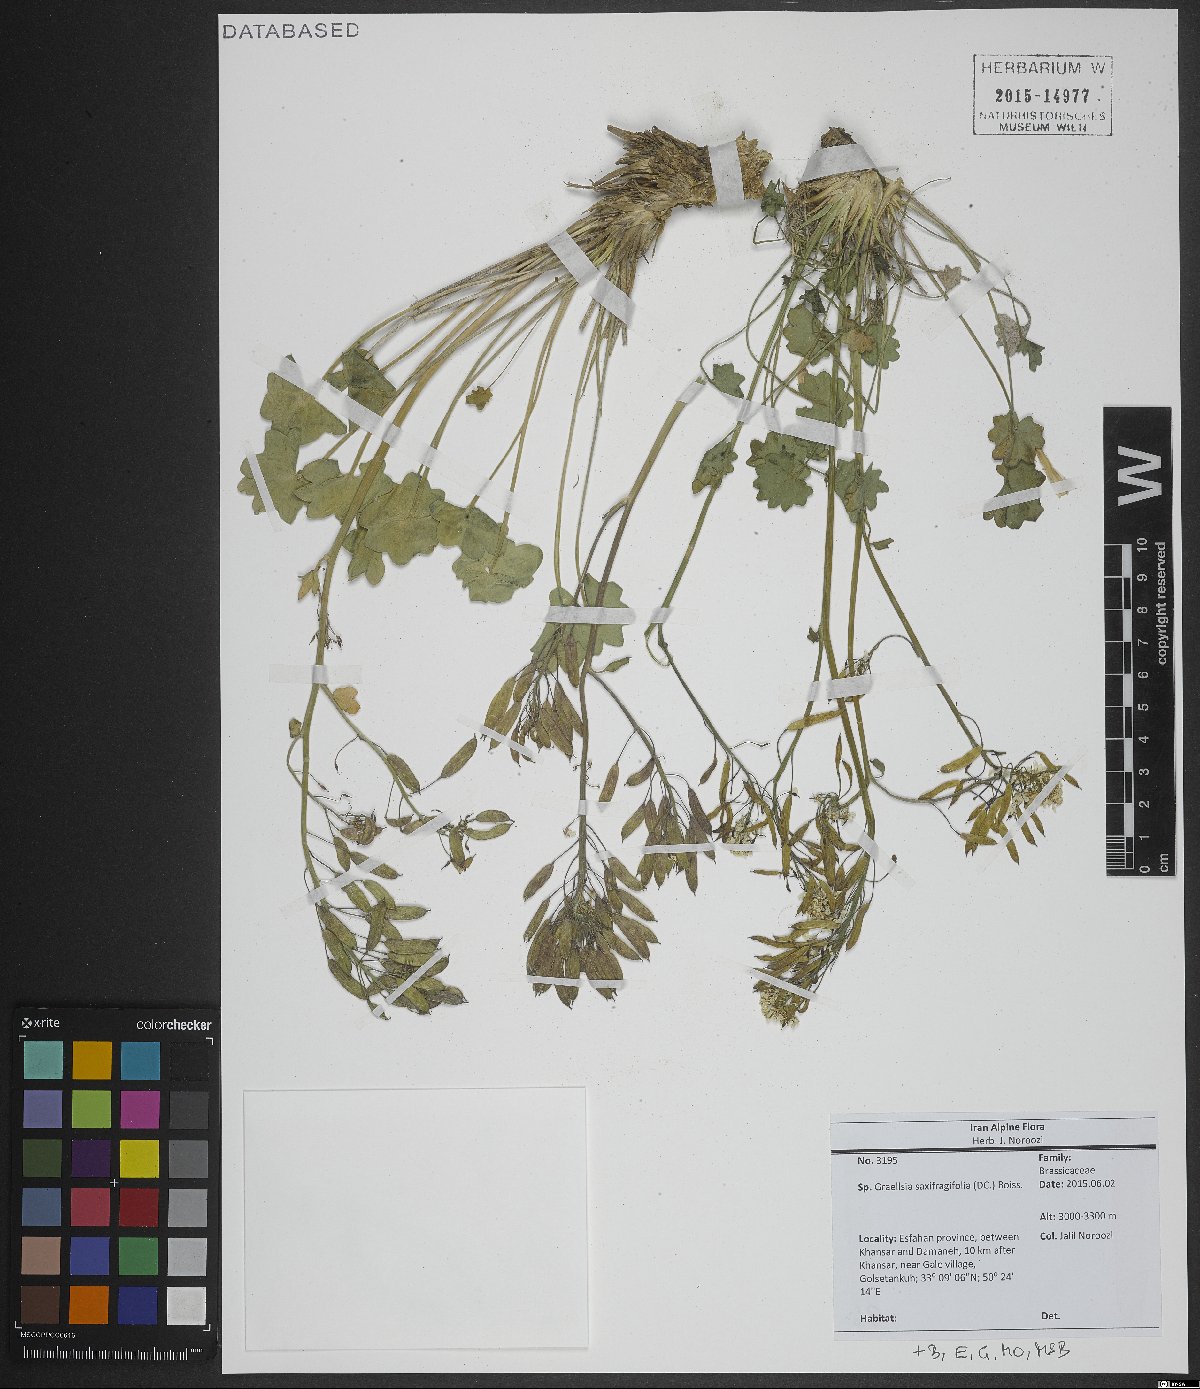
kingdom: Plantae
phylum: Tracheophyta
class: Magnoliopsida
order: Brassicales
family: Brassicaceae
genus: Graellsia
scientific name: Graellsia saxifragifolia
